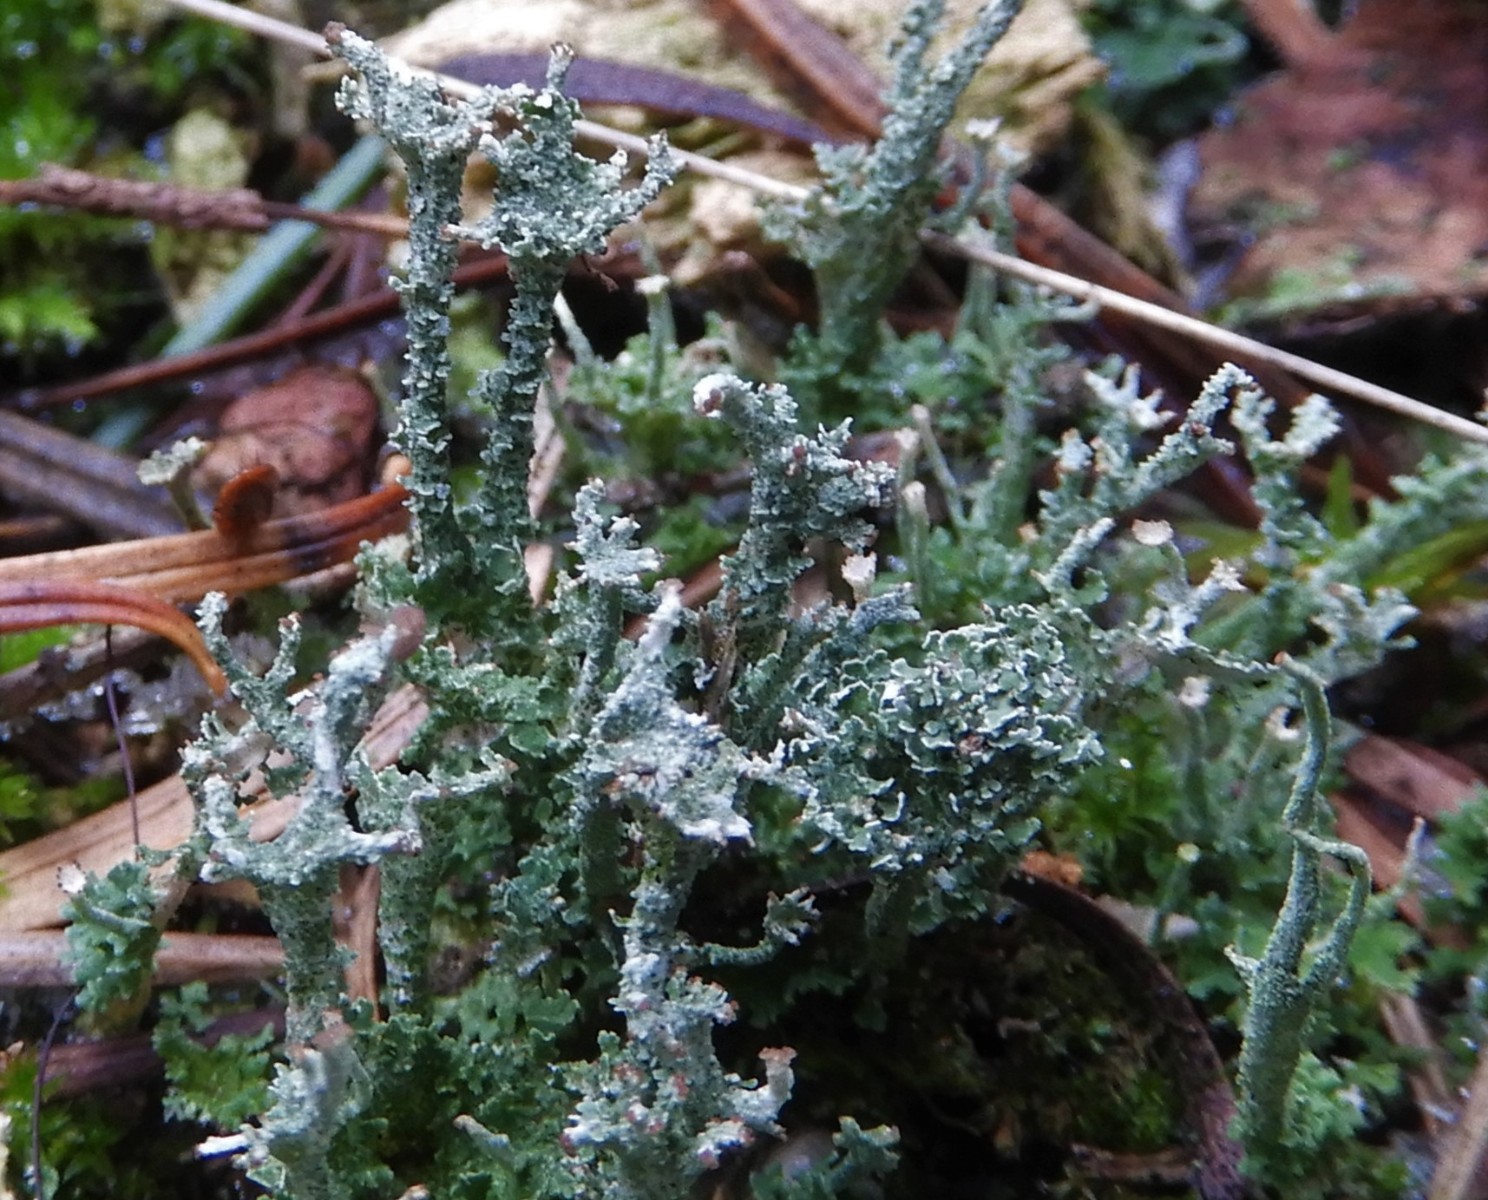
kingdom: Fungi
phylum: Ascomycota
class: Lecanoromycetes
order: Lecanorales
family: Cladoniaceae
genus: Cladonia
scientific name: Cladonia squamosa
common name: skælklædt bægerlav
